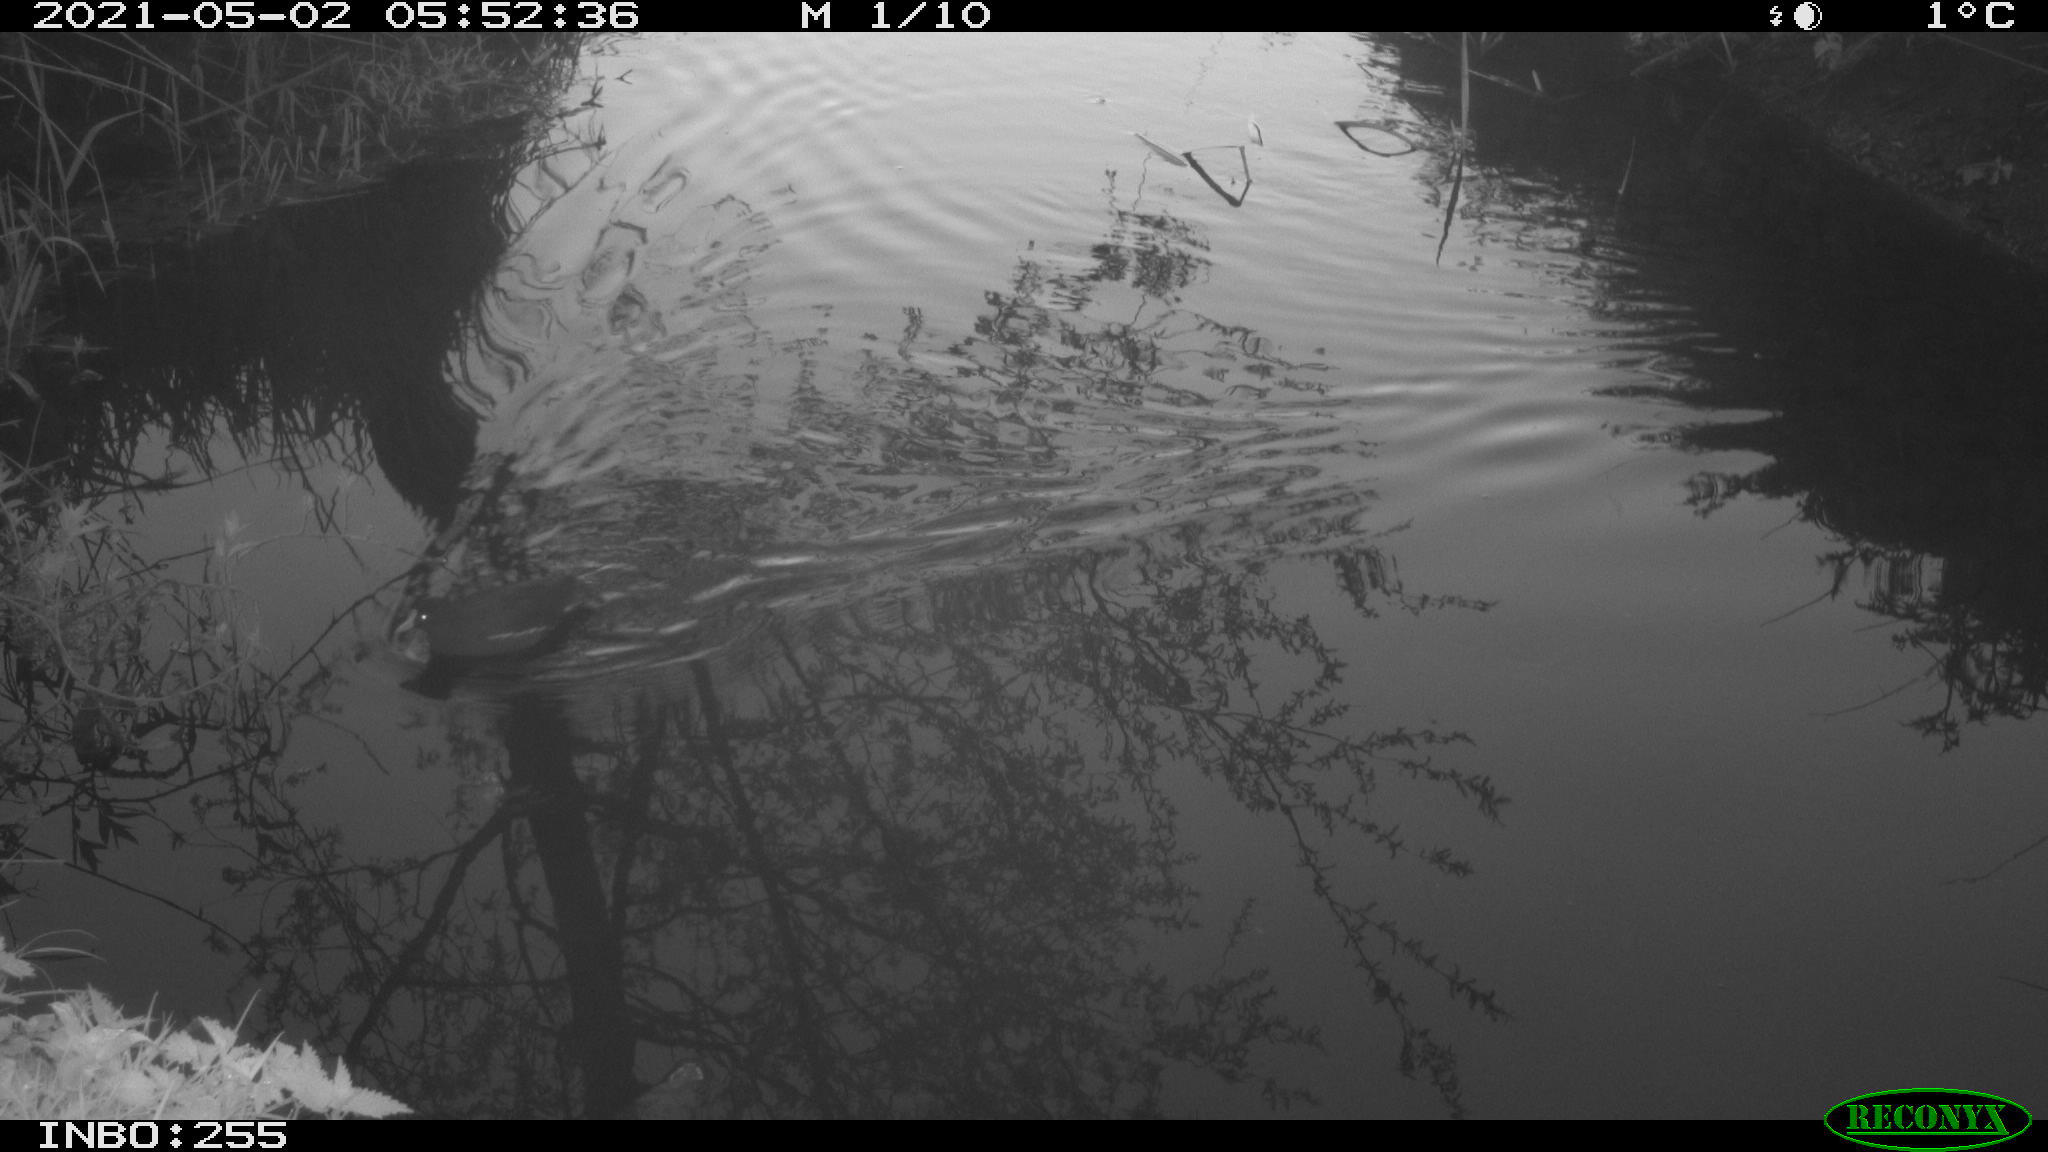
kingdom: Animalia
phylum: Chordata
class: Aves
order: Gruiformes
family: Rallidae
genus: Gallinula
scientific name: Gallinula chloropus
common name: Common moorhen
